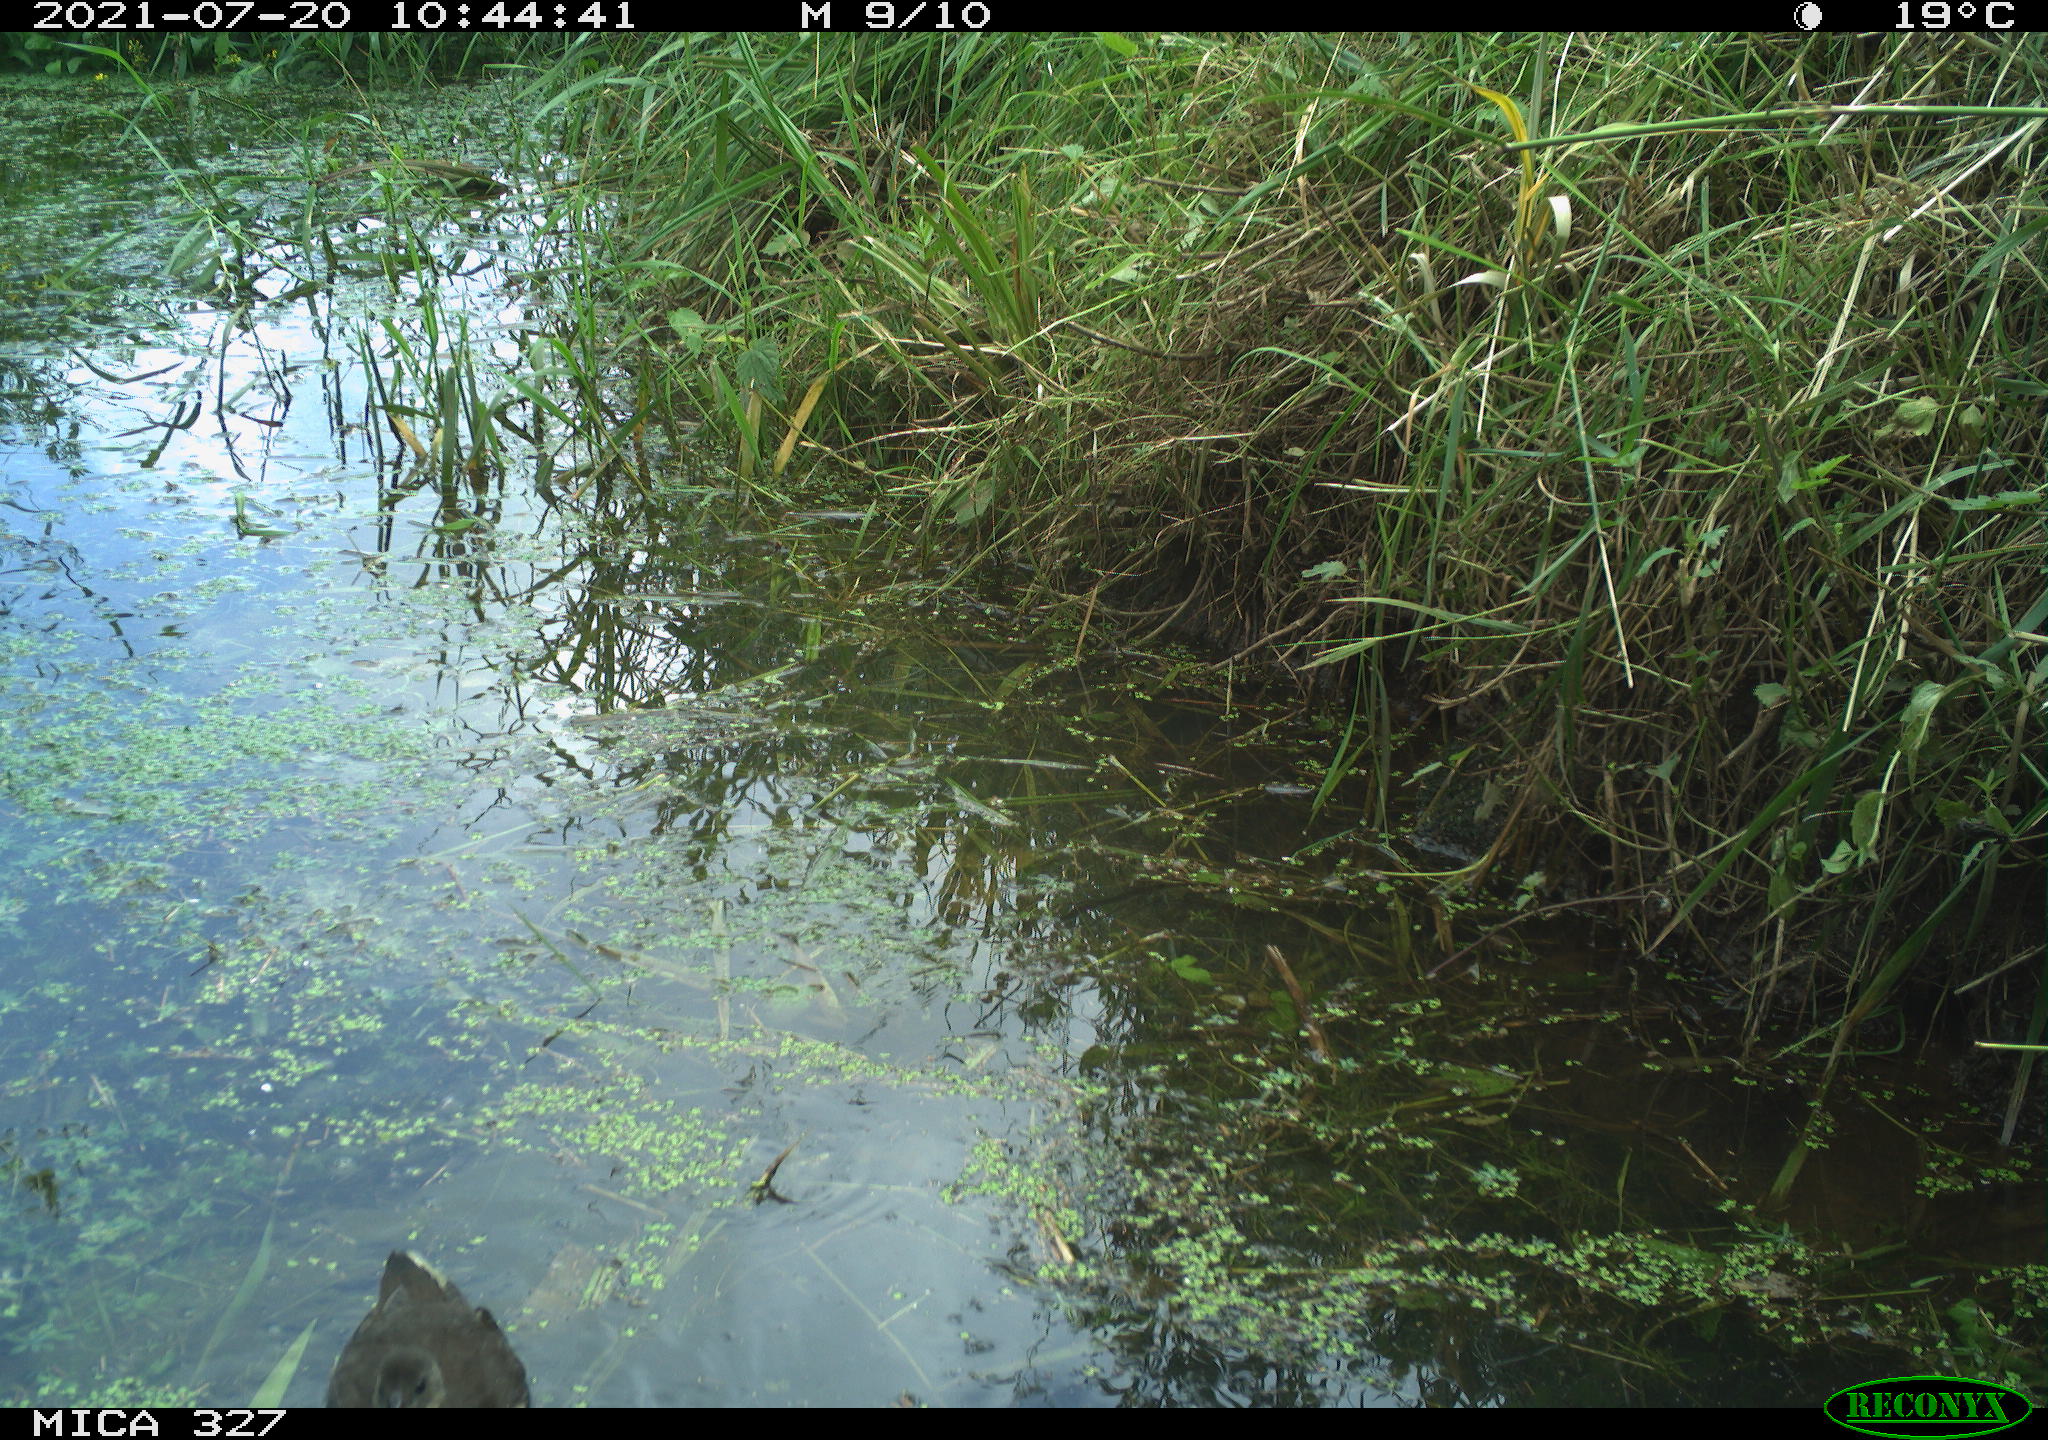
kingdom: Animalia
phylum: Chordata
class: Aves
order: Gruiformes
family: Rallidae
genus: Gallinula
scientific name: Gallinula chloropus
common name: Common moorhen
